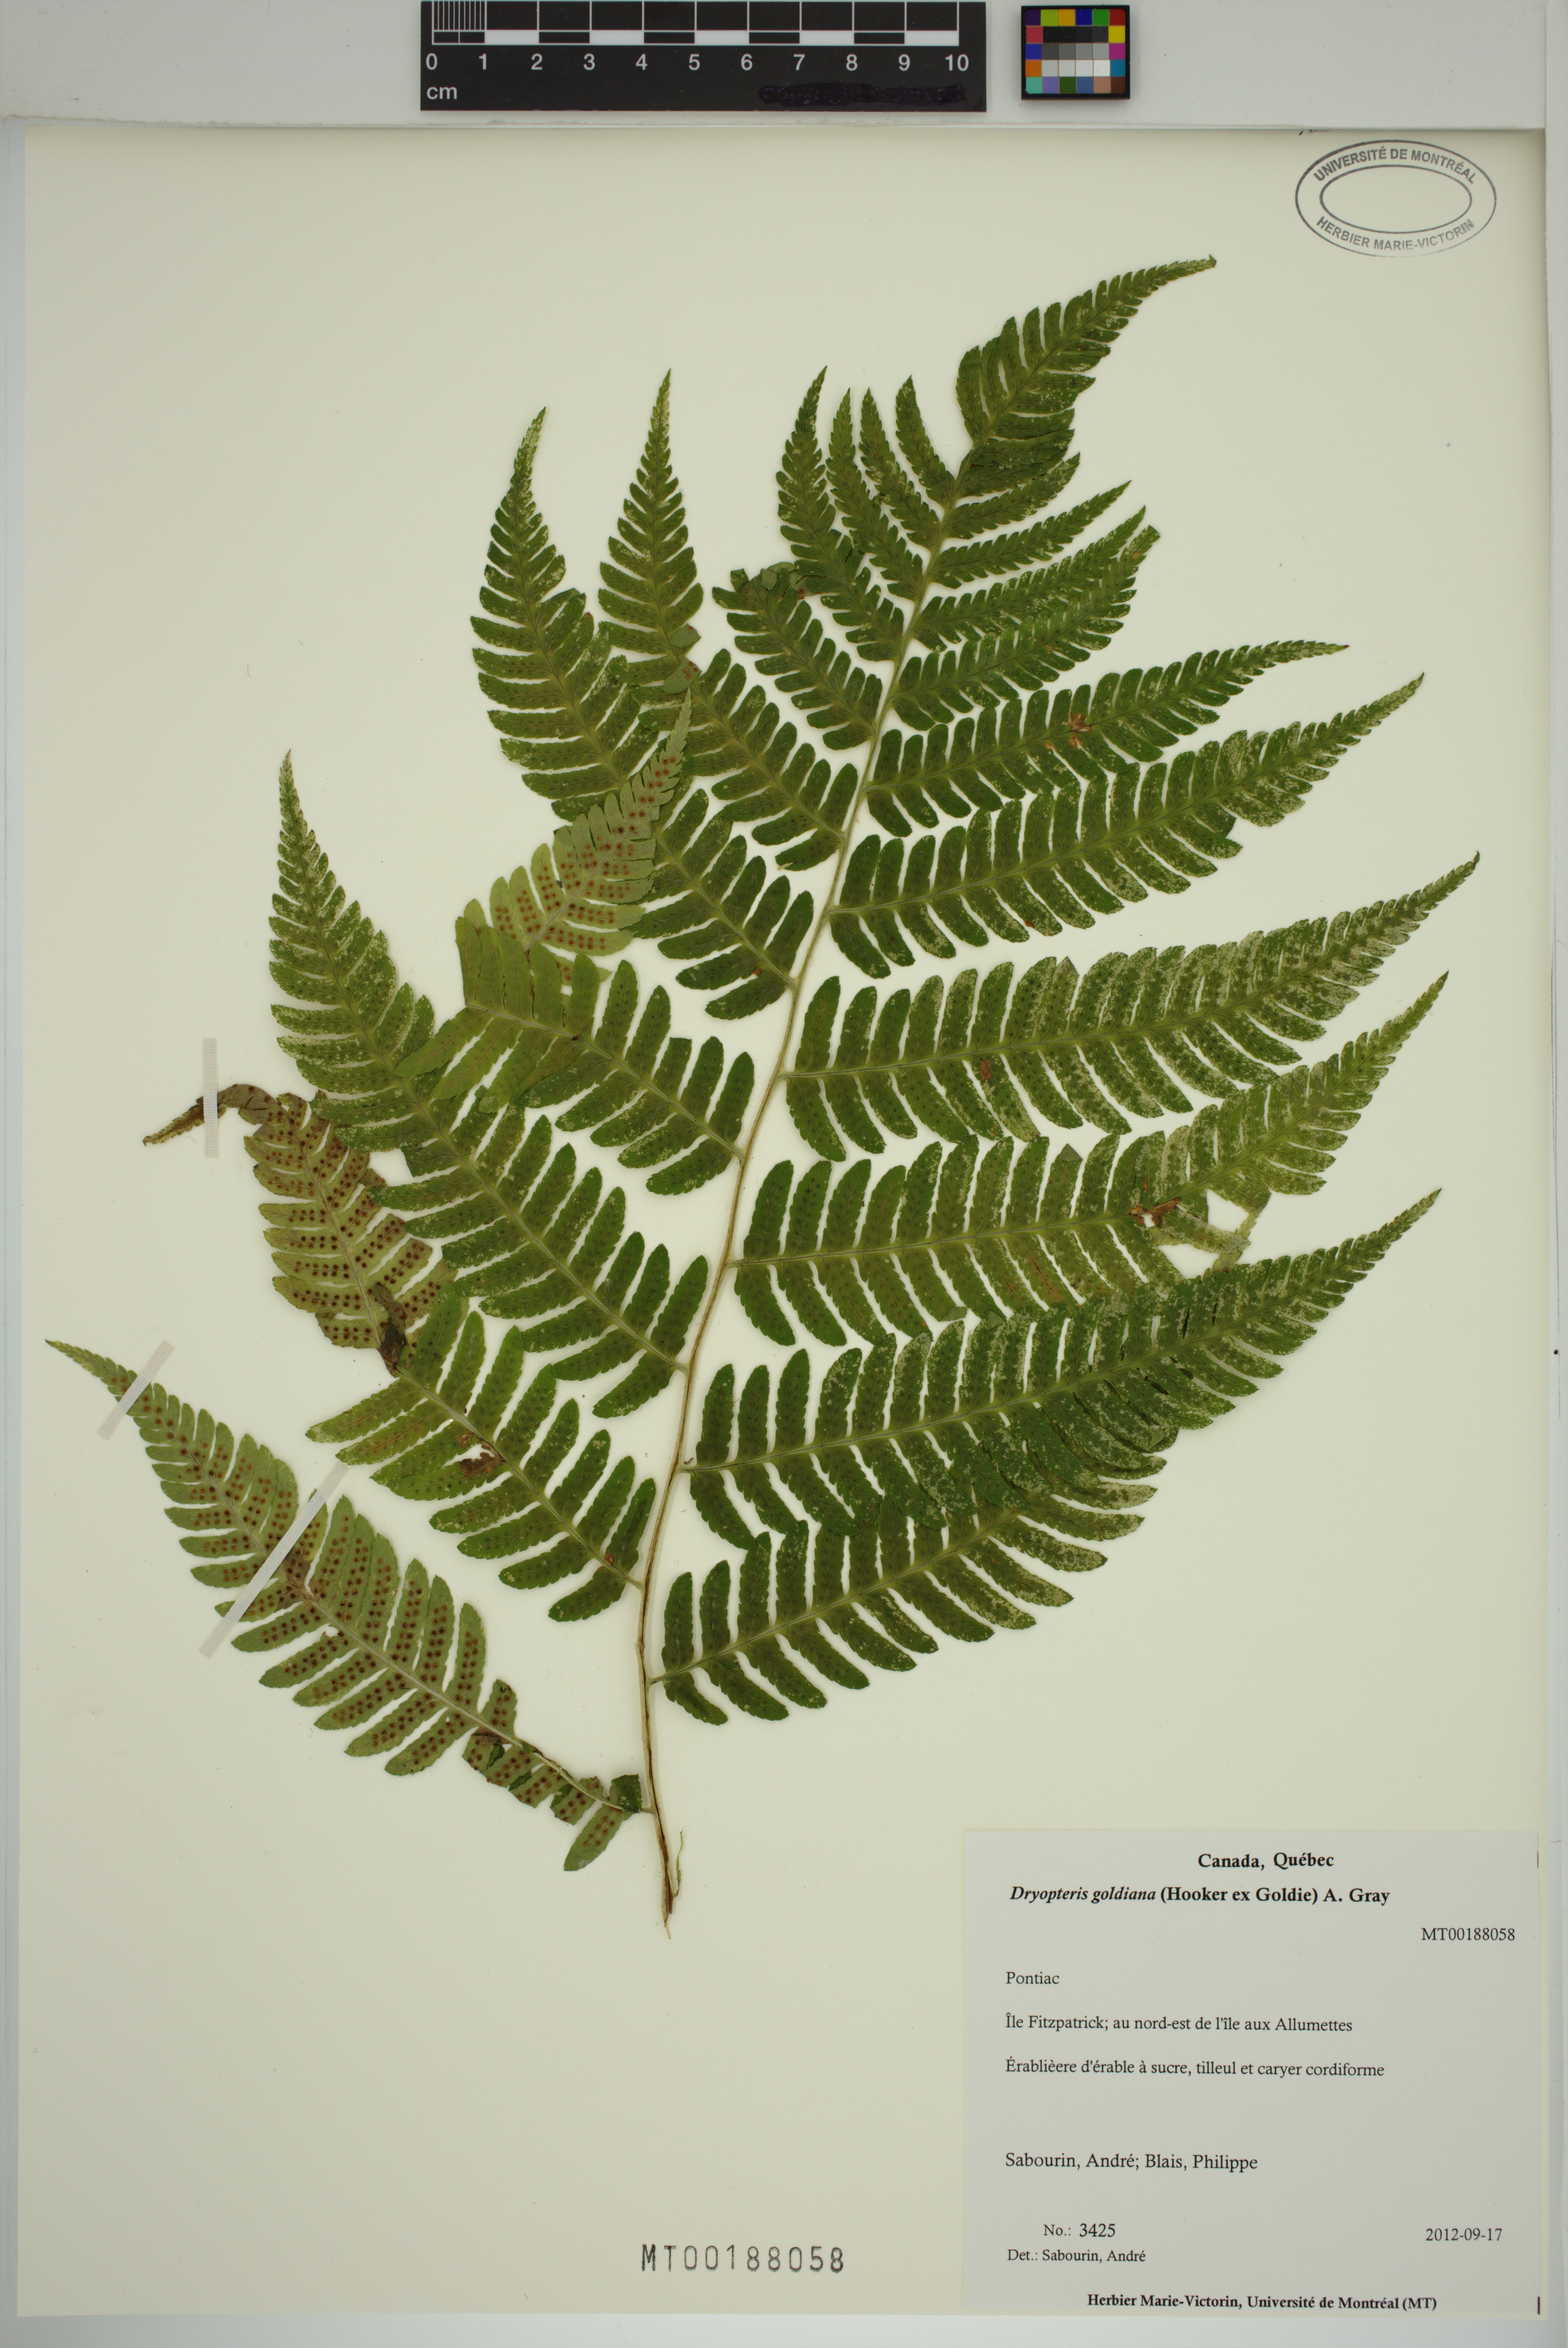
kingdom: Plantae
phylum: Tracheophyta
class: Polypodiopsida
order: Polypodiales
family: Dryopteridaceae
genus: Dryopteris
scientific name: Dryopteris goldieana
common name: Goldie's fern
